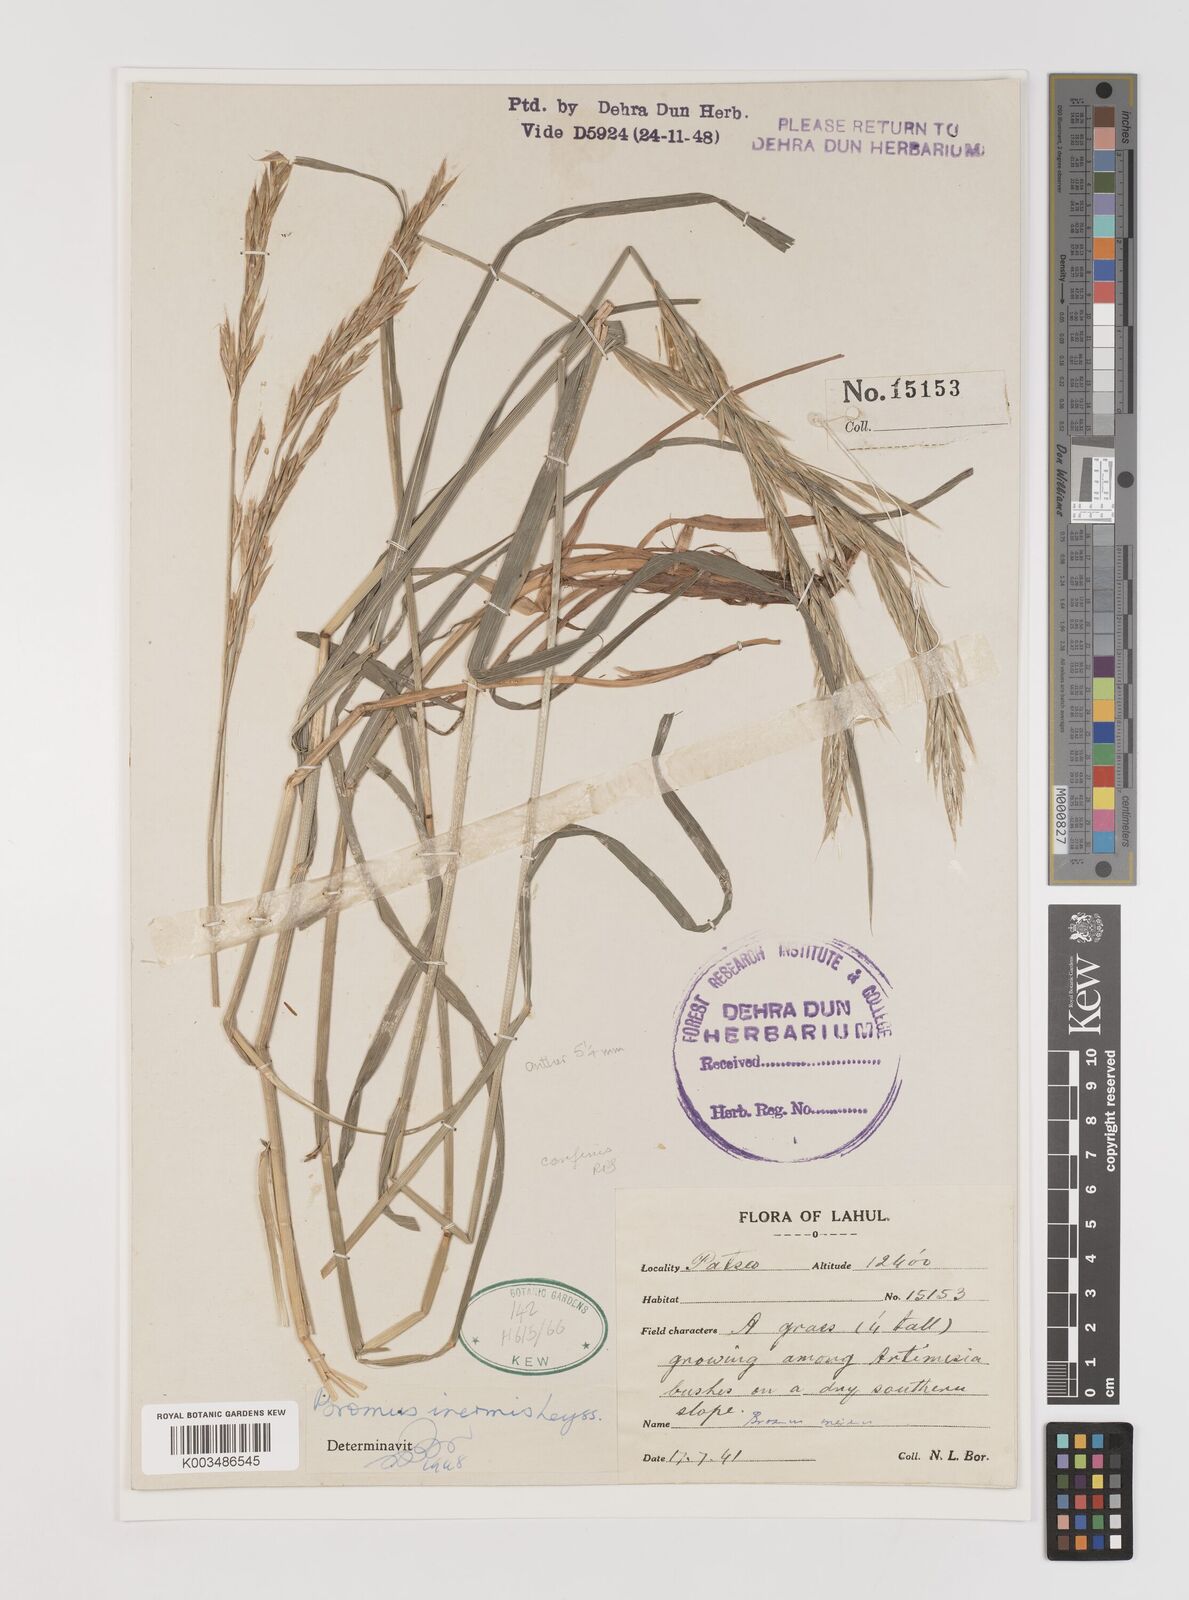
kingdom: Plantae
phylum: Tracheophyta
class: Liliopsida
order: Poales
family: Poaceae
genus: Bromus
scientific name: Bromus inermis
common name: Smooth brome
